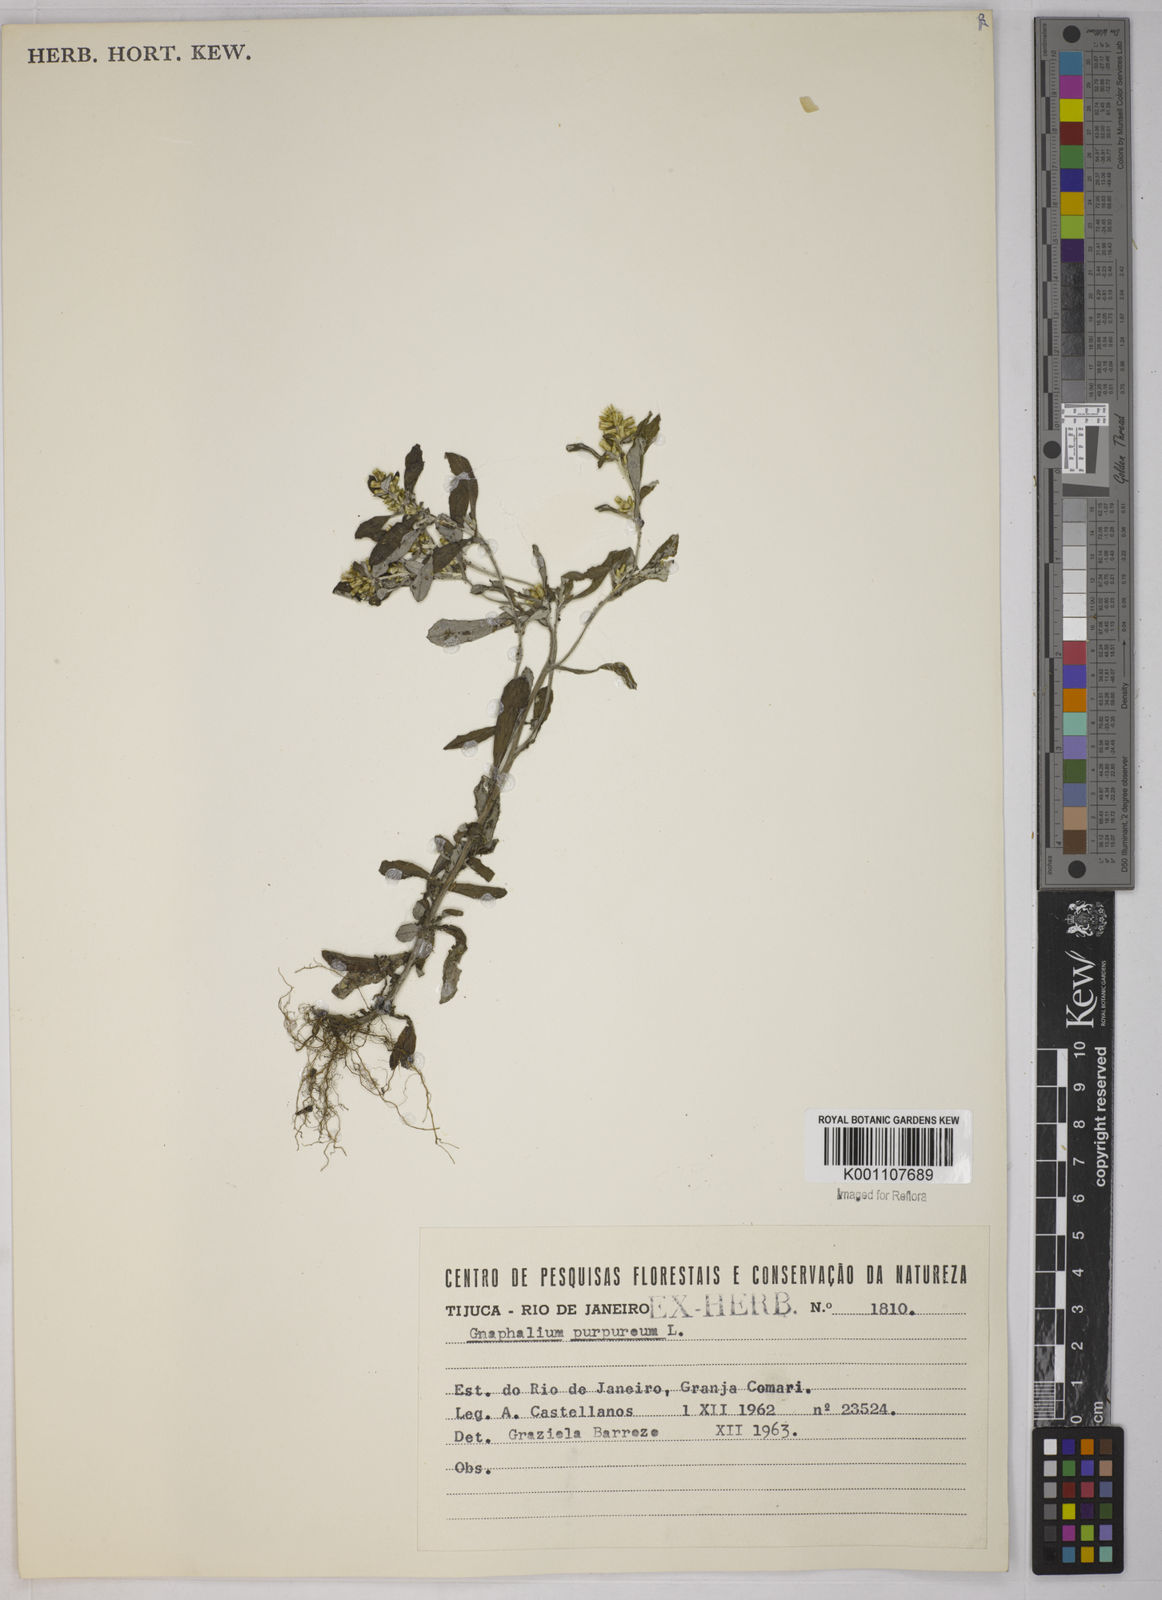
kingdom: Plantae
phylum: Tracheophyta
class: Magnoliopsida
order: Asterales
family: Asteraceae
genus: Gamochaeta
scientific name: Gamochaeta purpurea
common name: Purple cudweed
